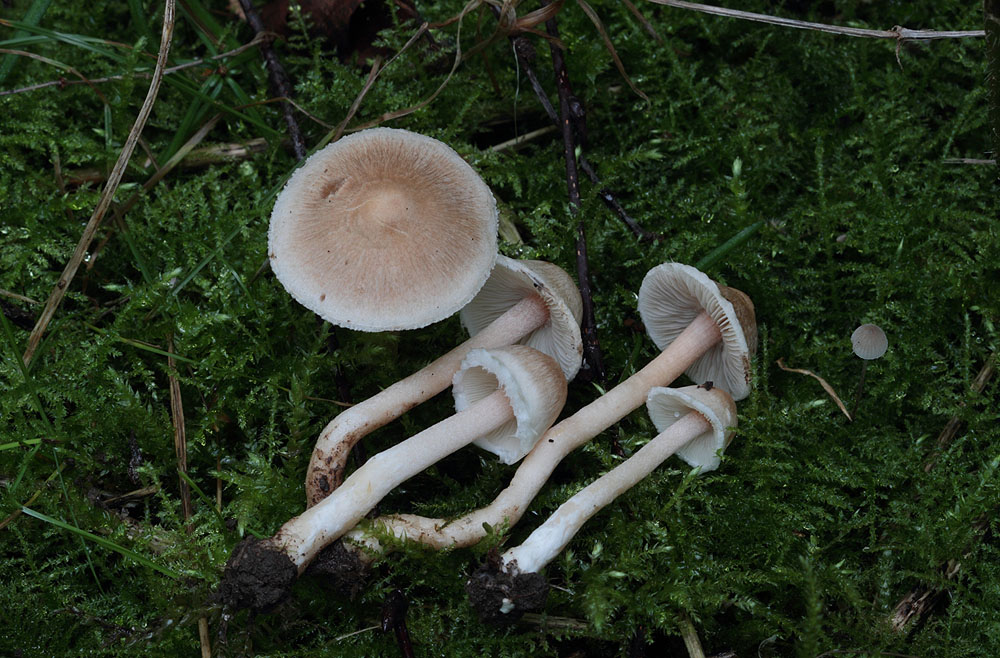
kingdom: Fungi
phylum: Basidiomycota
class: Agaricomycetes
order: Agaricales
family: Inocybaceae
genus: Inocybe
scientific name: Inocybe sindonia
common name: bleg trævlhat
